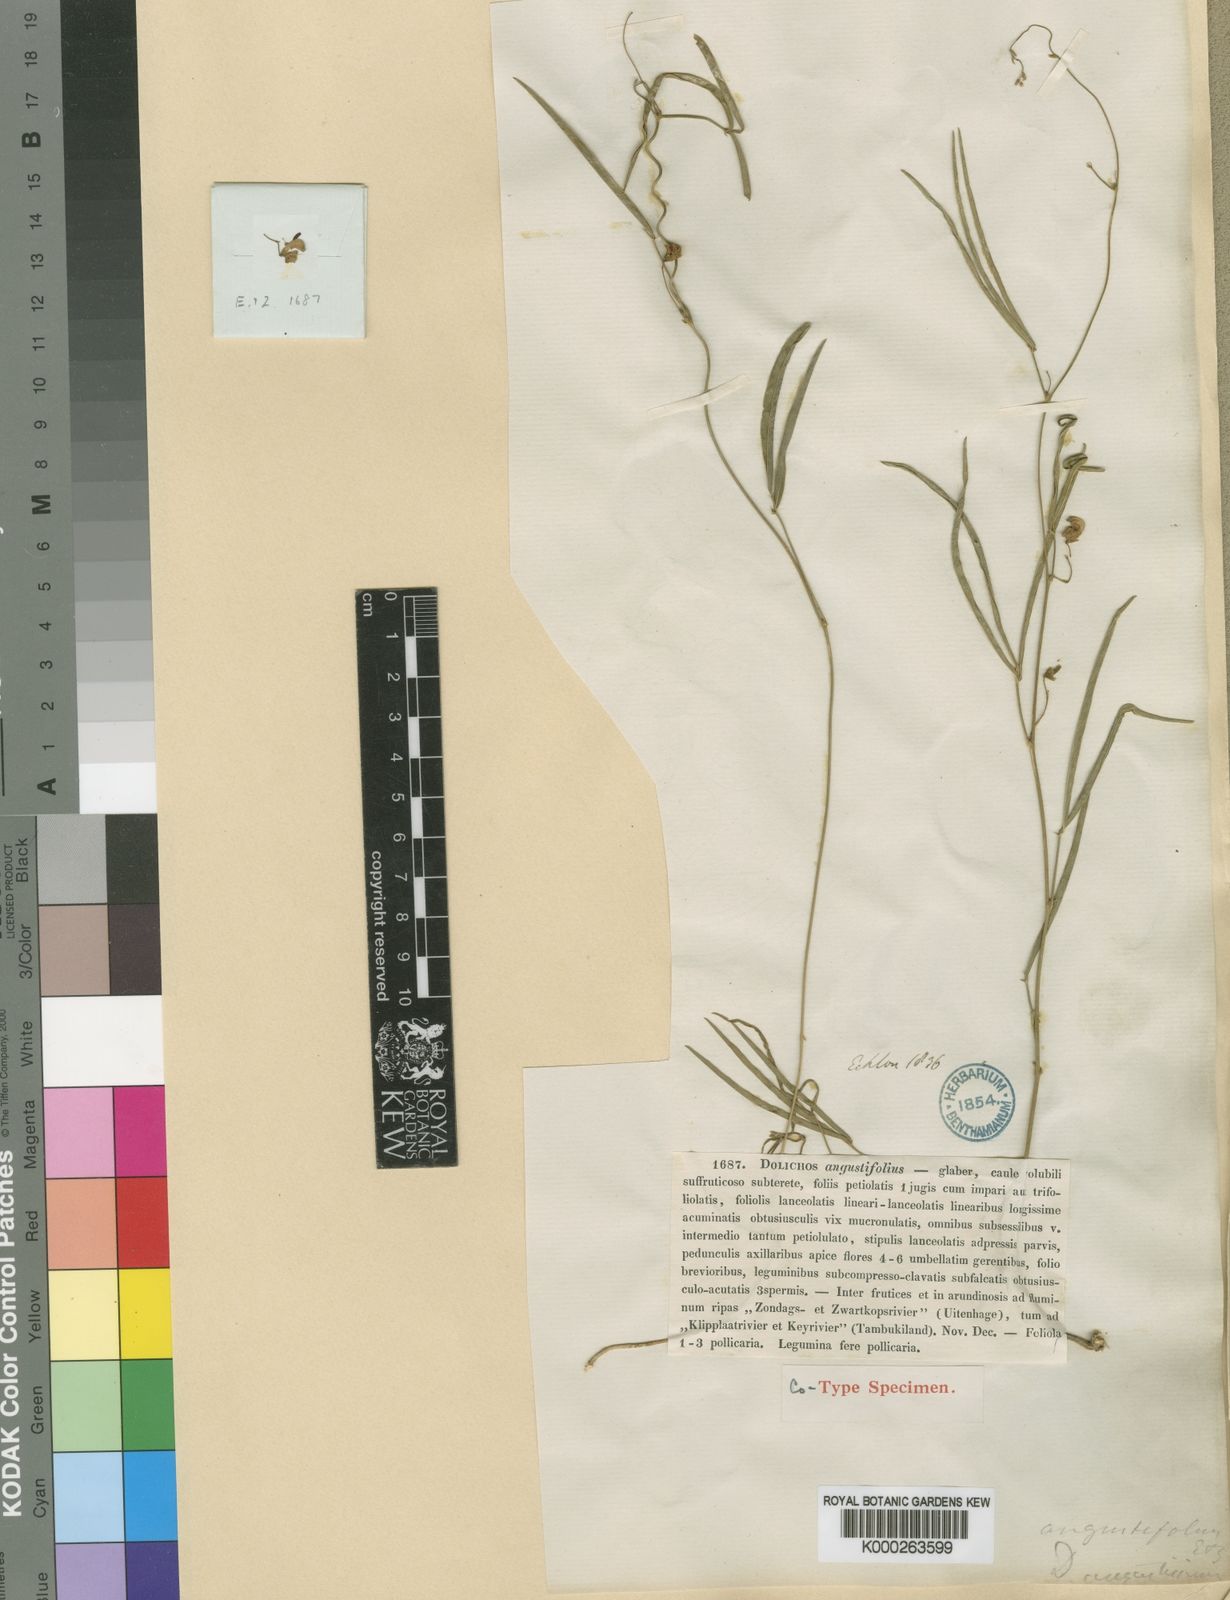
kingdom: Plantae
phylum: Tracheophyta
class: Magnoliopsida
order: Fabales
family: Fabaceae
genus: Dolichos
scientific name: Dolichos angustifolius
